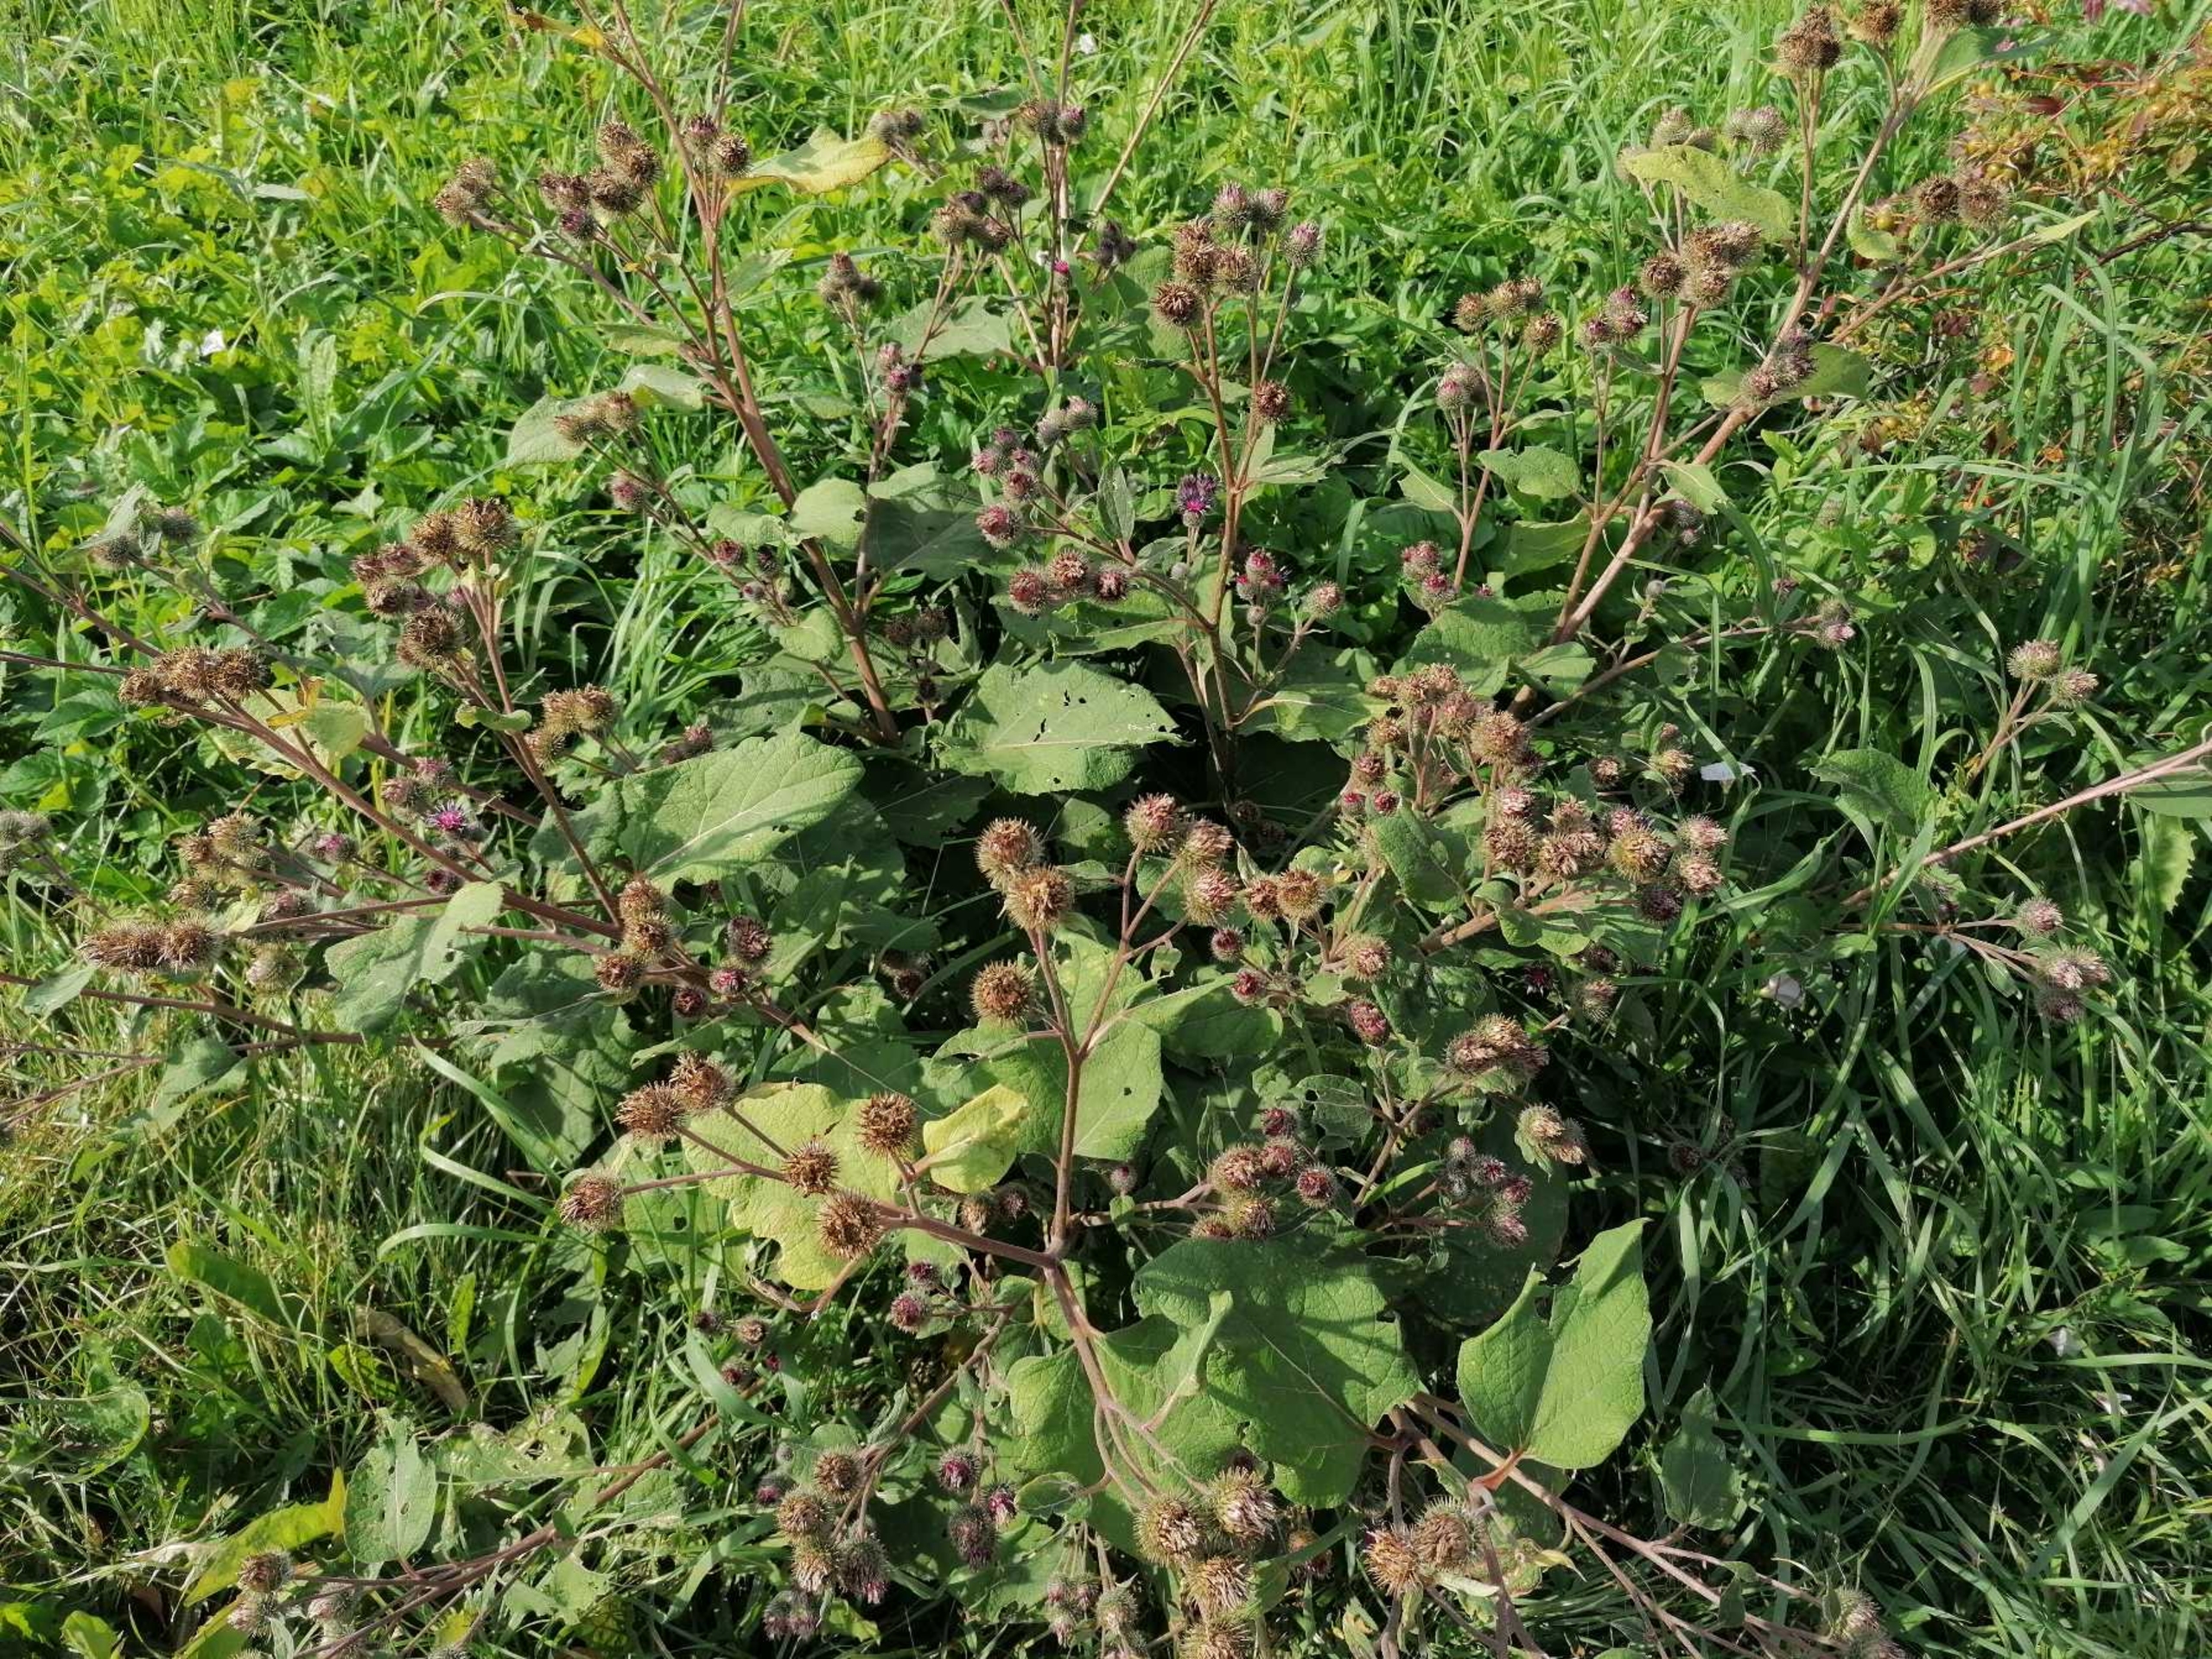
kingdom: Plantae
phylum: Tracheophyta
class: Magnoliopsida
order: Asterales
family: Asteraceae
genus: Arctium
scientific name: Arctium lappa
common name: Glat burre
